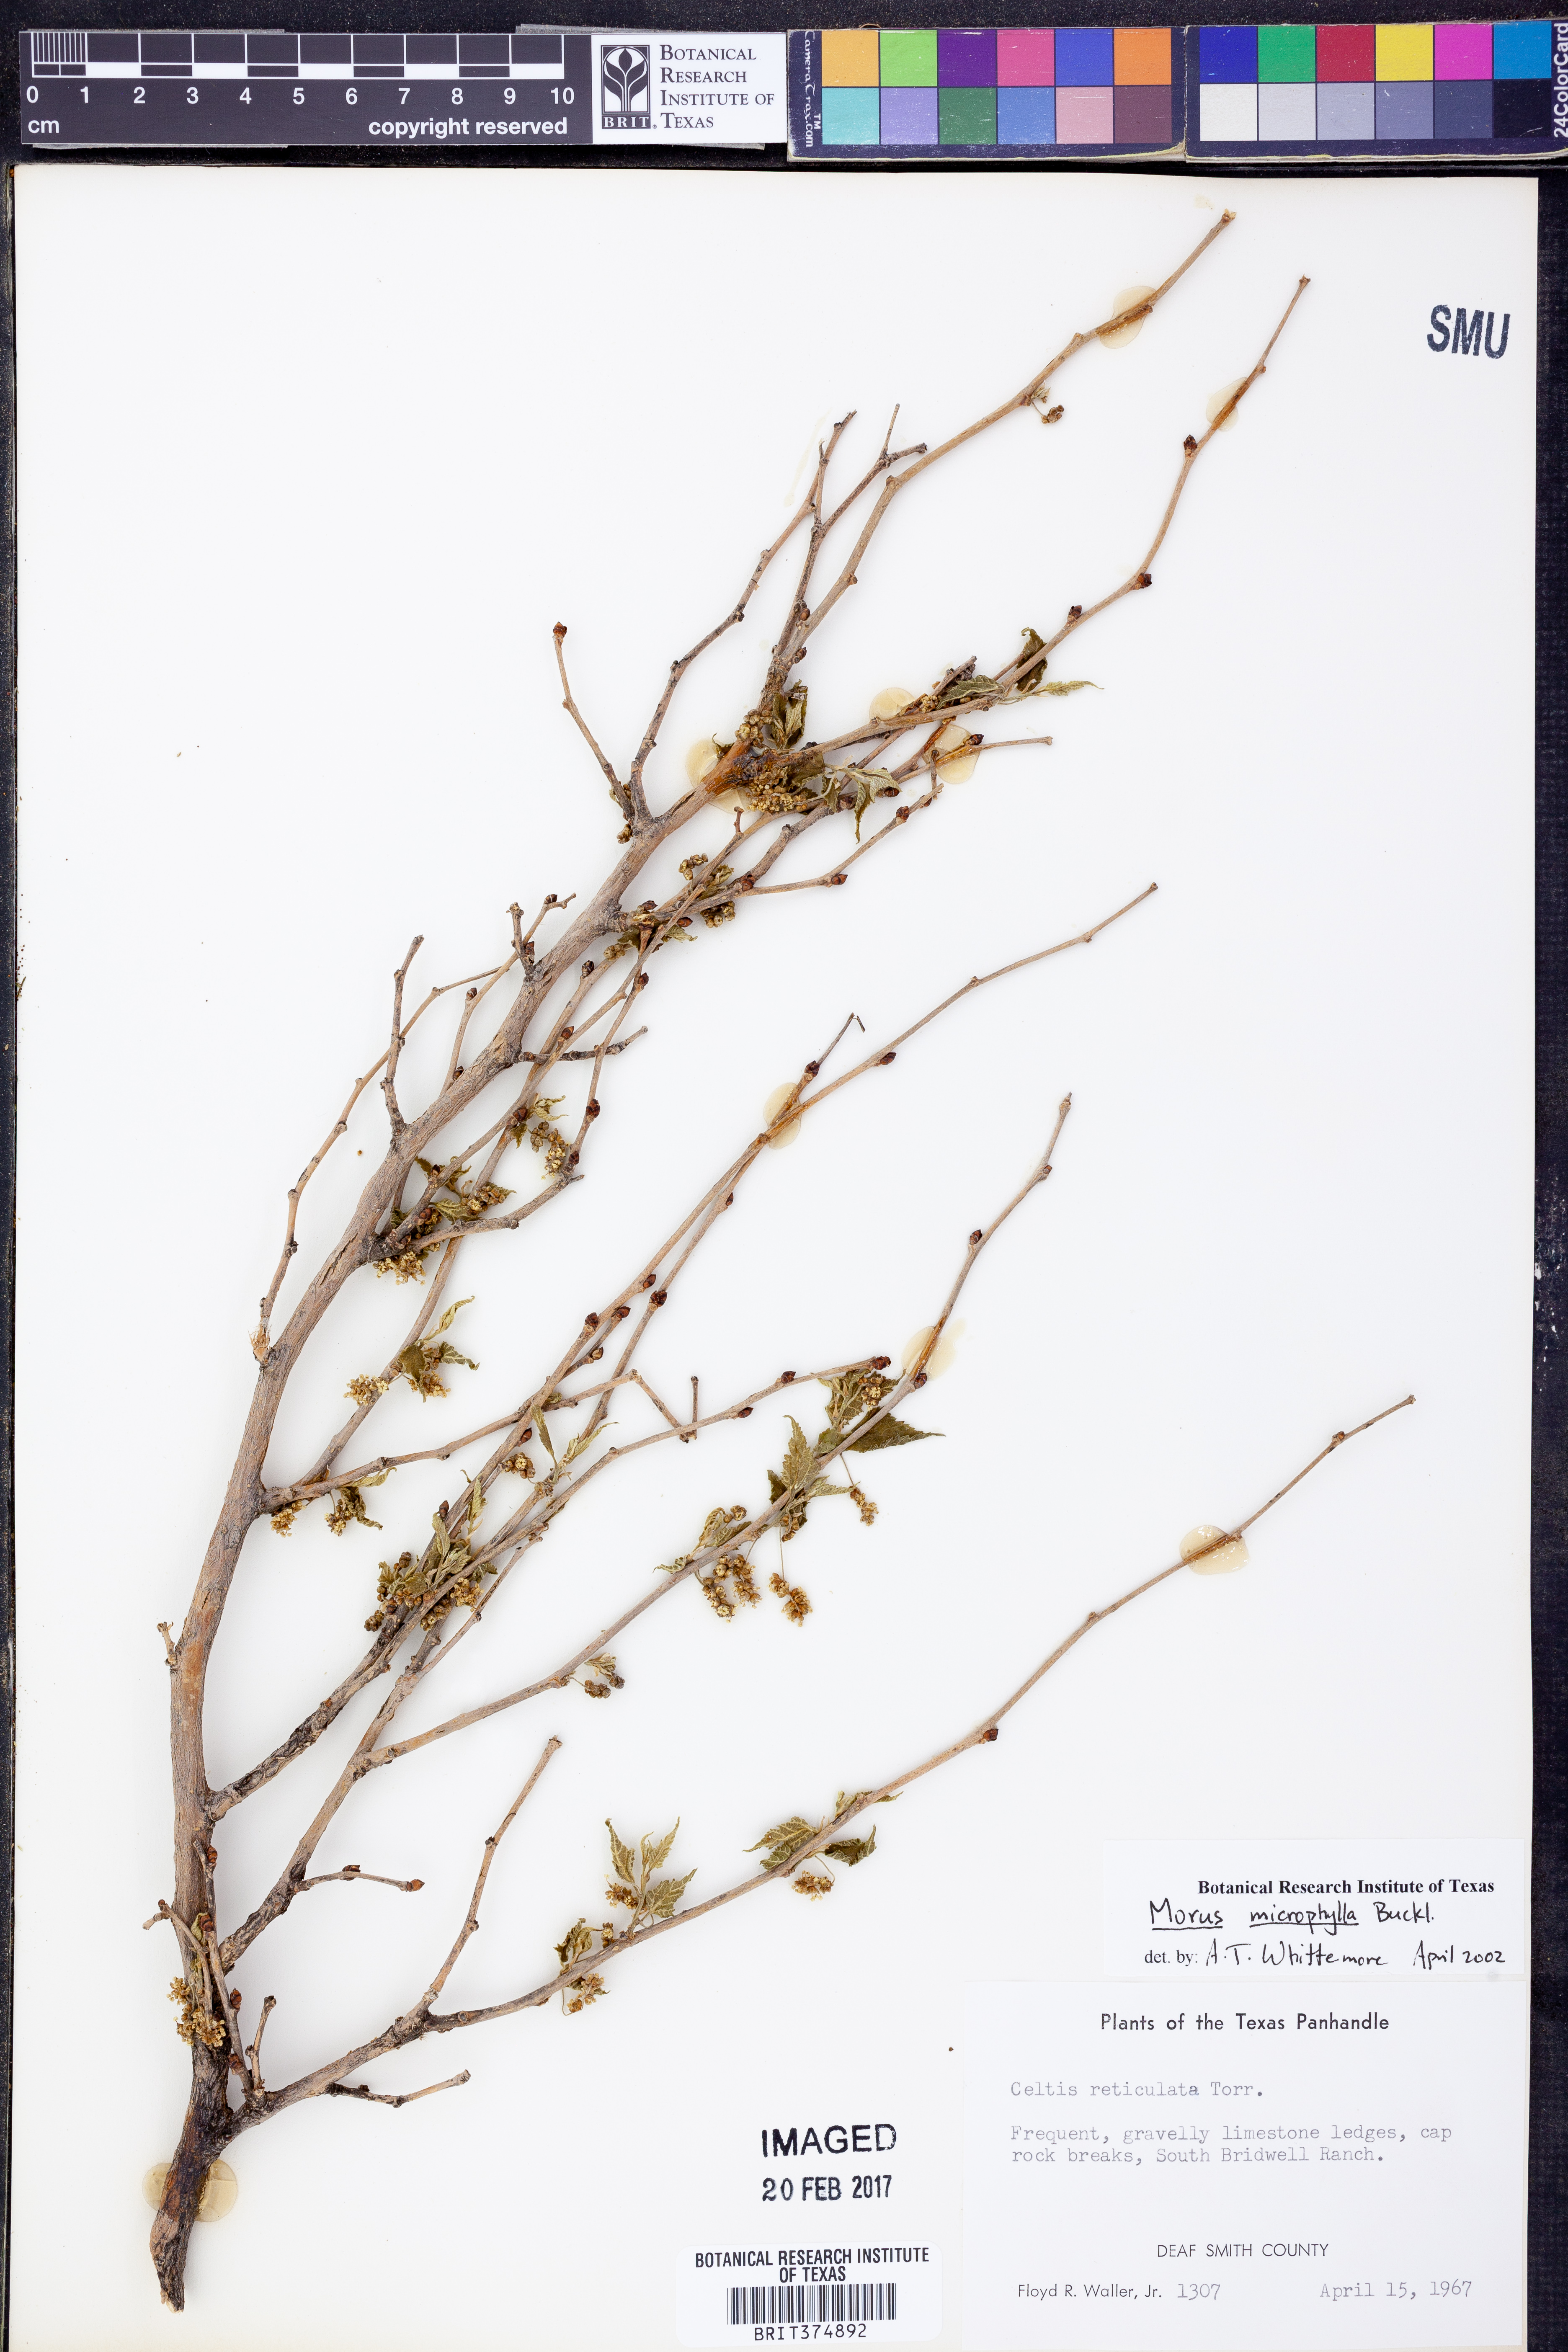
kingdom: Plantae
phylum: Tracheophyta
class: Magnoliopsida
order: Rosales
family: Moraceae
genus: Morus
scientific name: Morus microphylla
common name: Mexican mulberry
